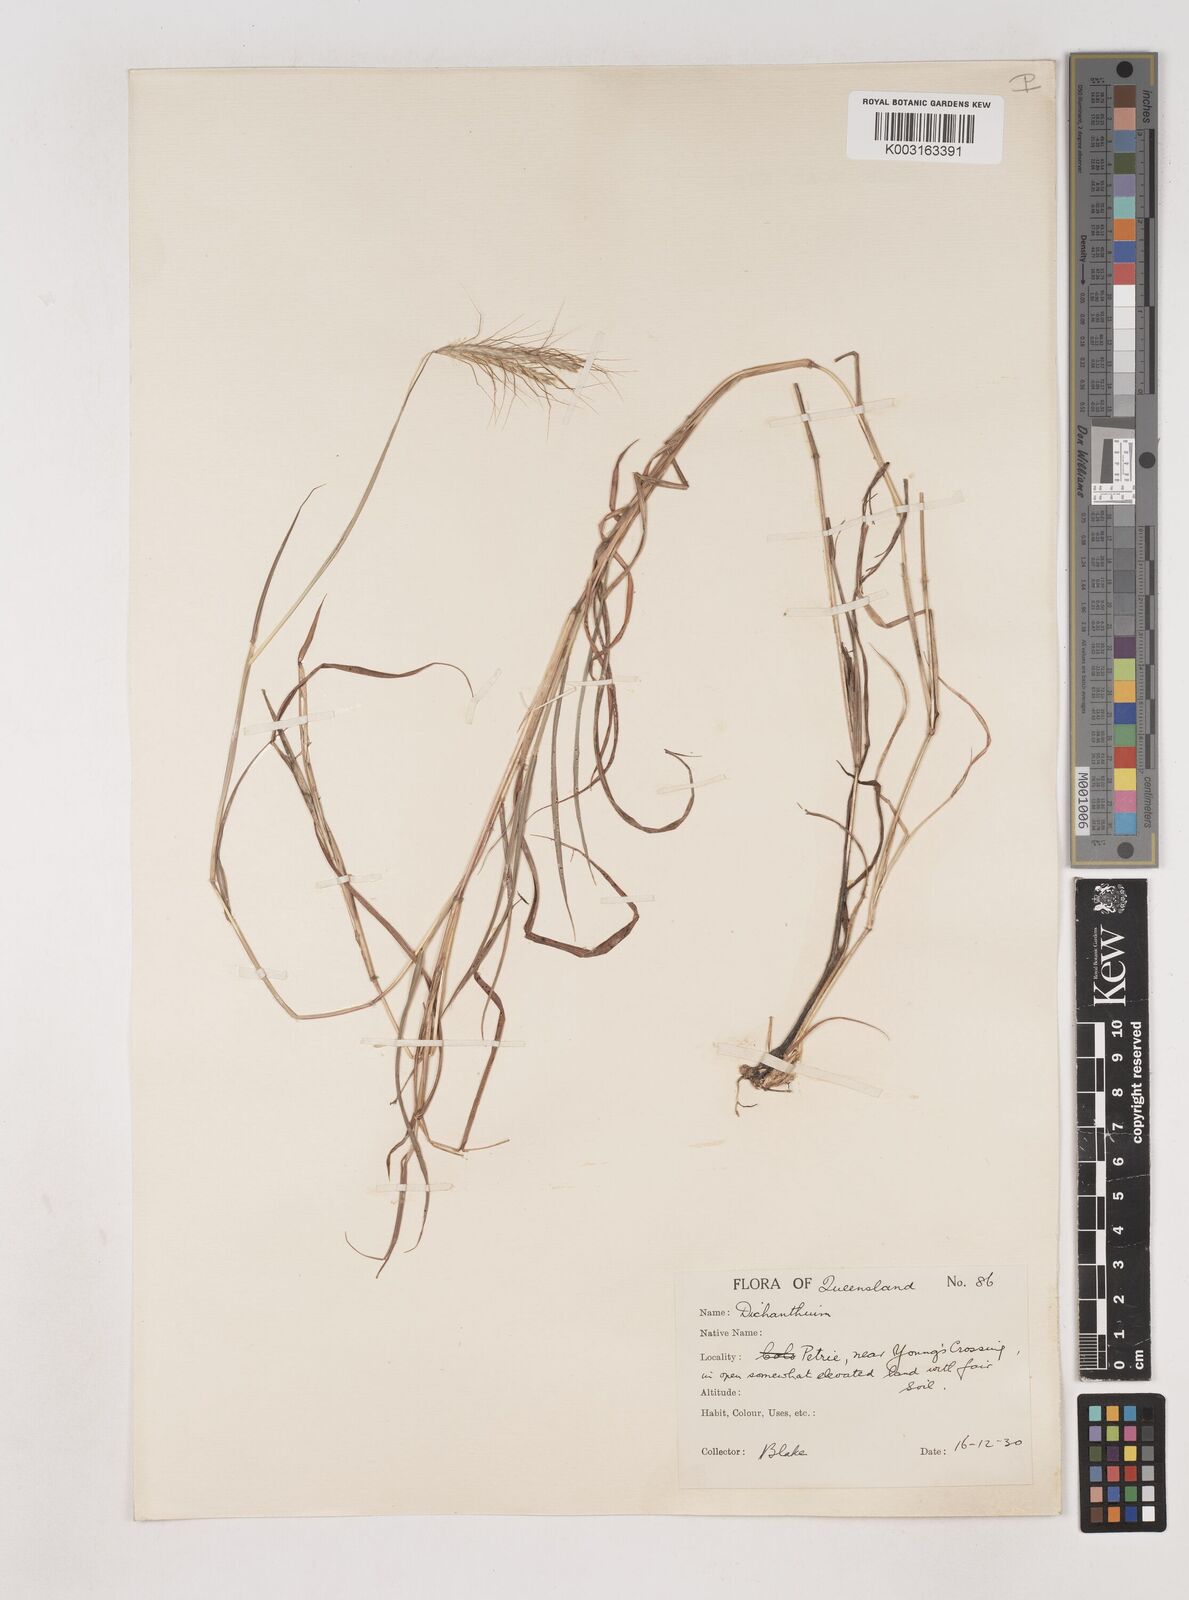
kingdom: Plantae
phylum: Tracheophyta
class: Liliopsida
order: Poales
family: Poaceae
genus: Dichanthium
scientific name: Dichanthium sericeum
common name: Silky bluestem
